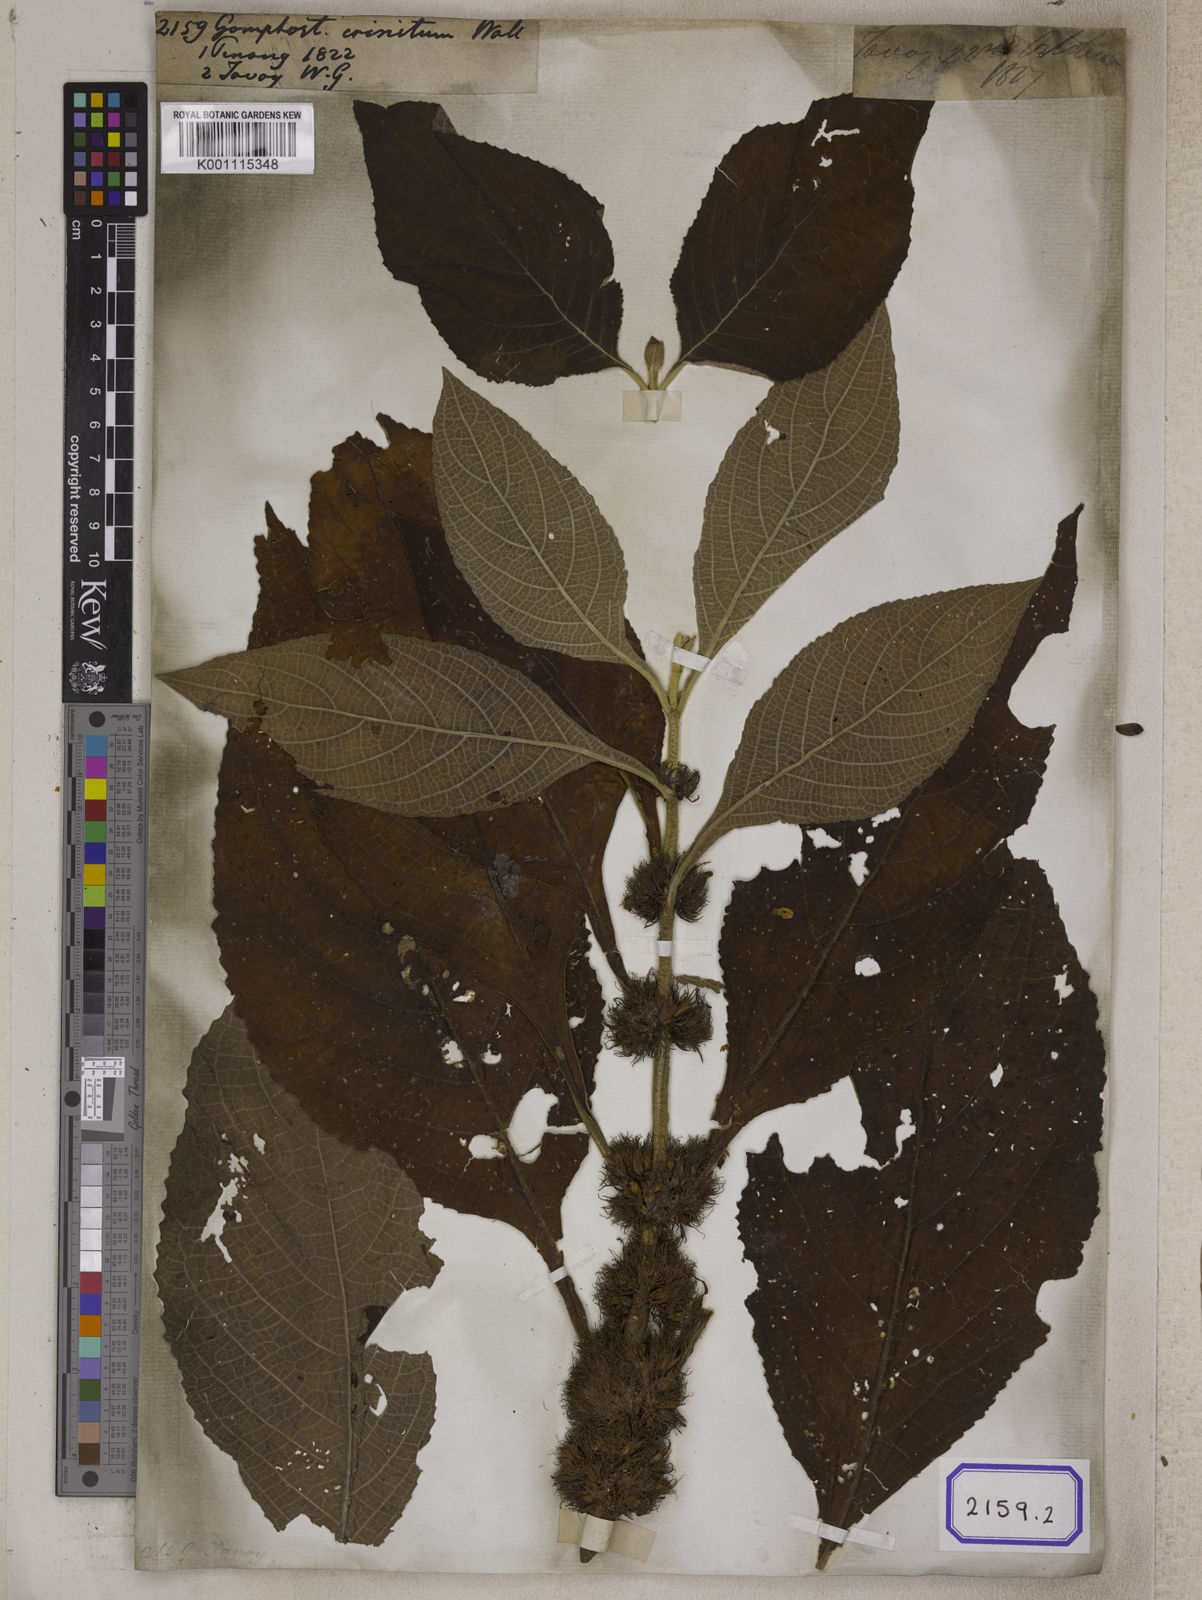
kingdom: Plantae
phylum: Tracheophyta
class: Magnoliopsida
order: Lamiales
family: Lamiaceae
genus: Gomphostemma
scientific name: Gomphostemma
